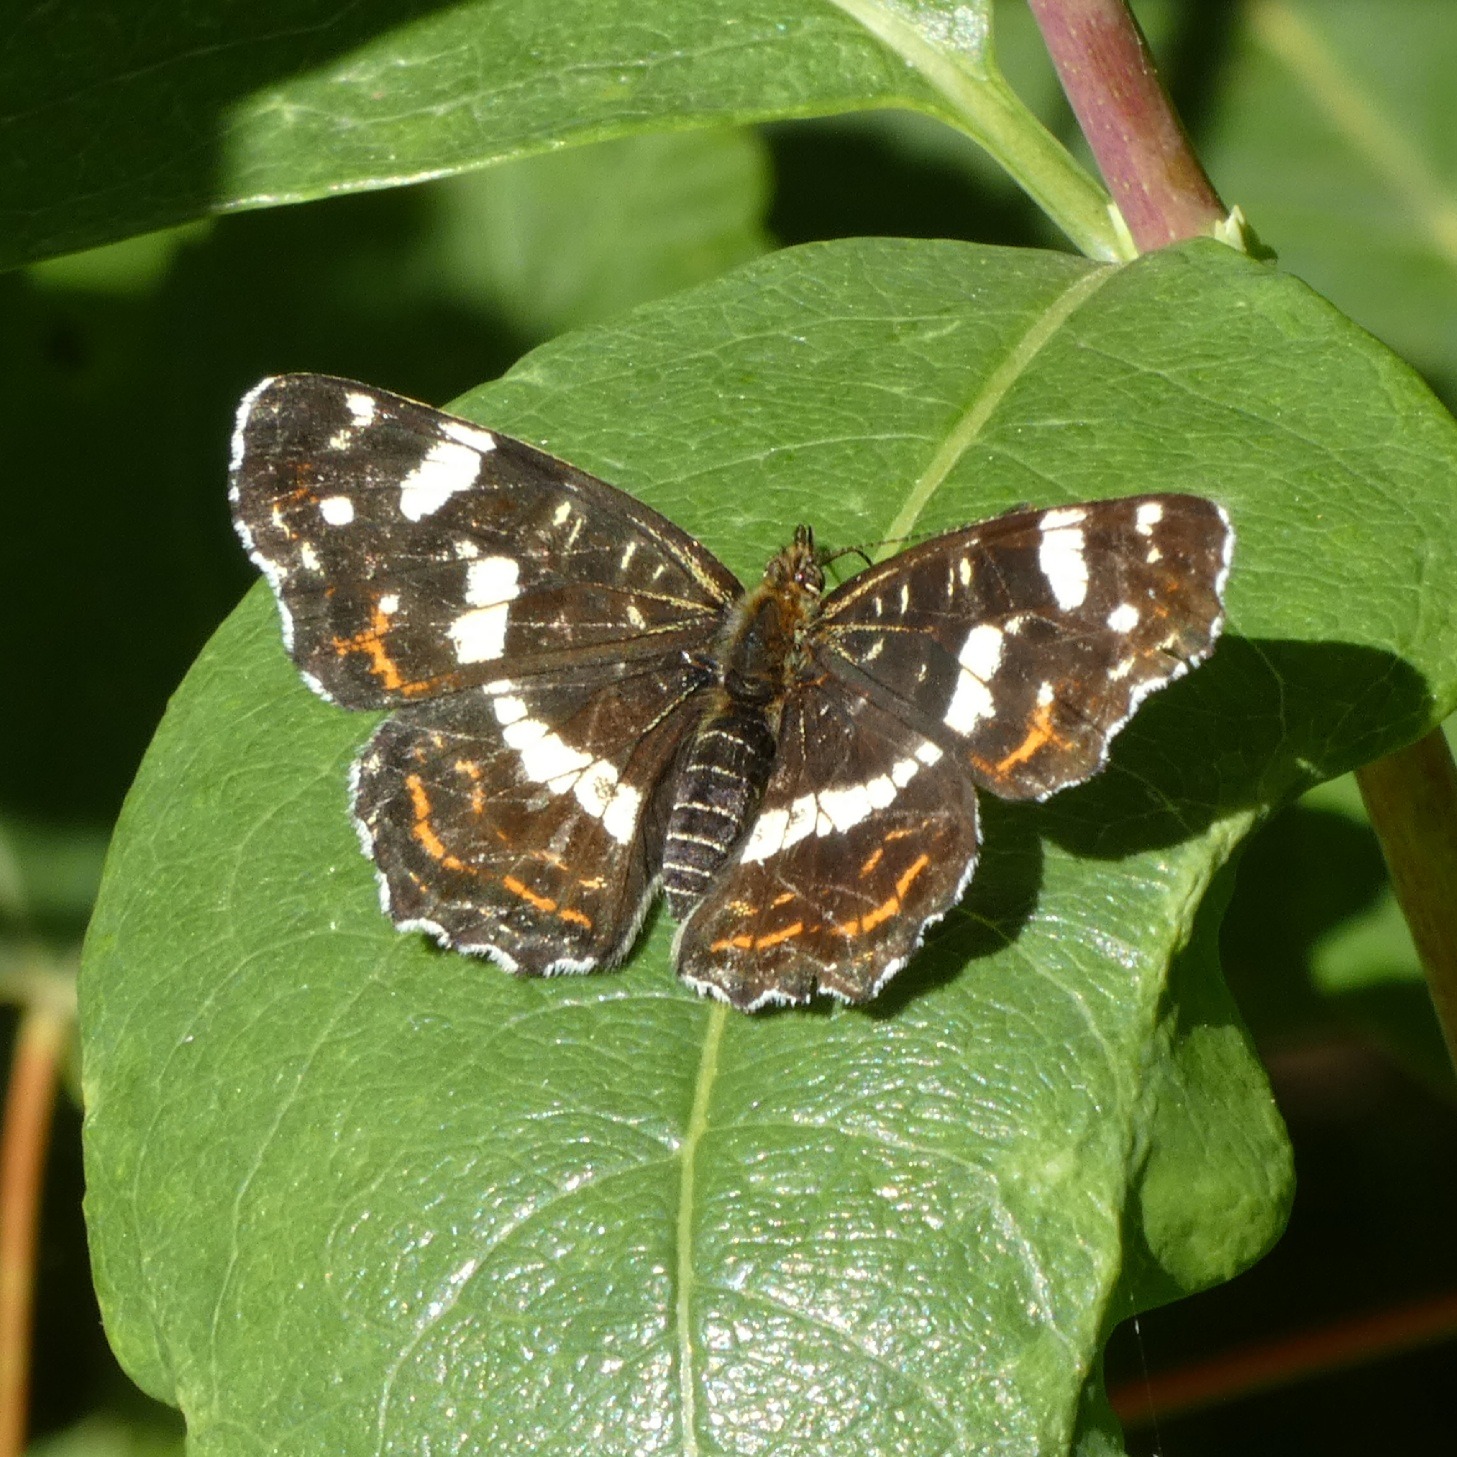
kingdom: Animalia
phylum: Arthropoda
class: Insecta
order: Lepidoptera
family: Nymphalidae
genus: Araschnia
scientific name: Araschnia levana
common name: Nældesommerfugl
